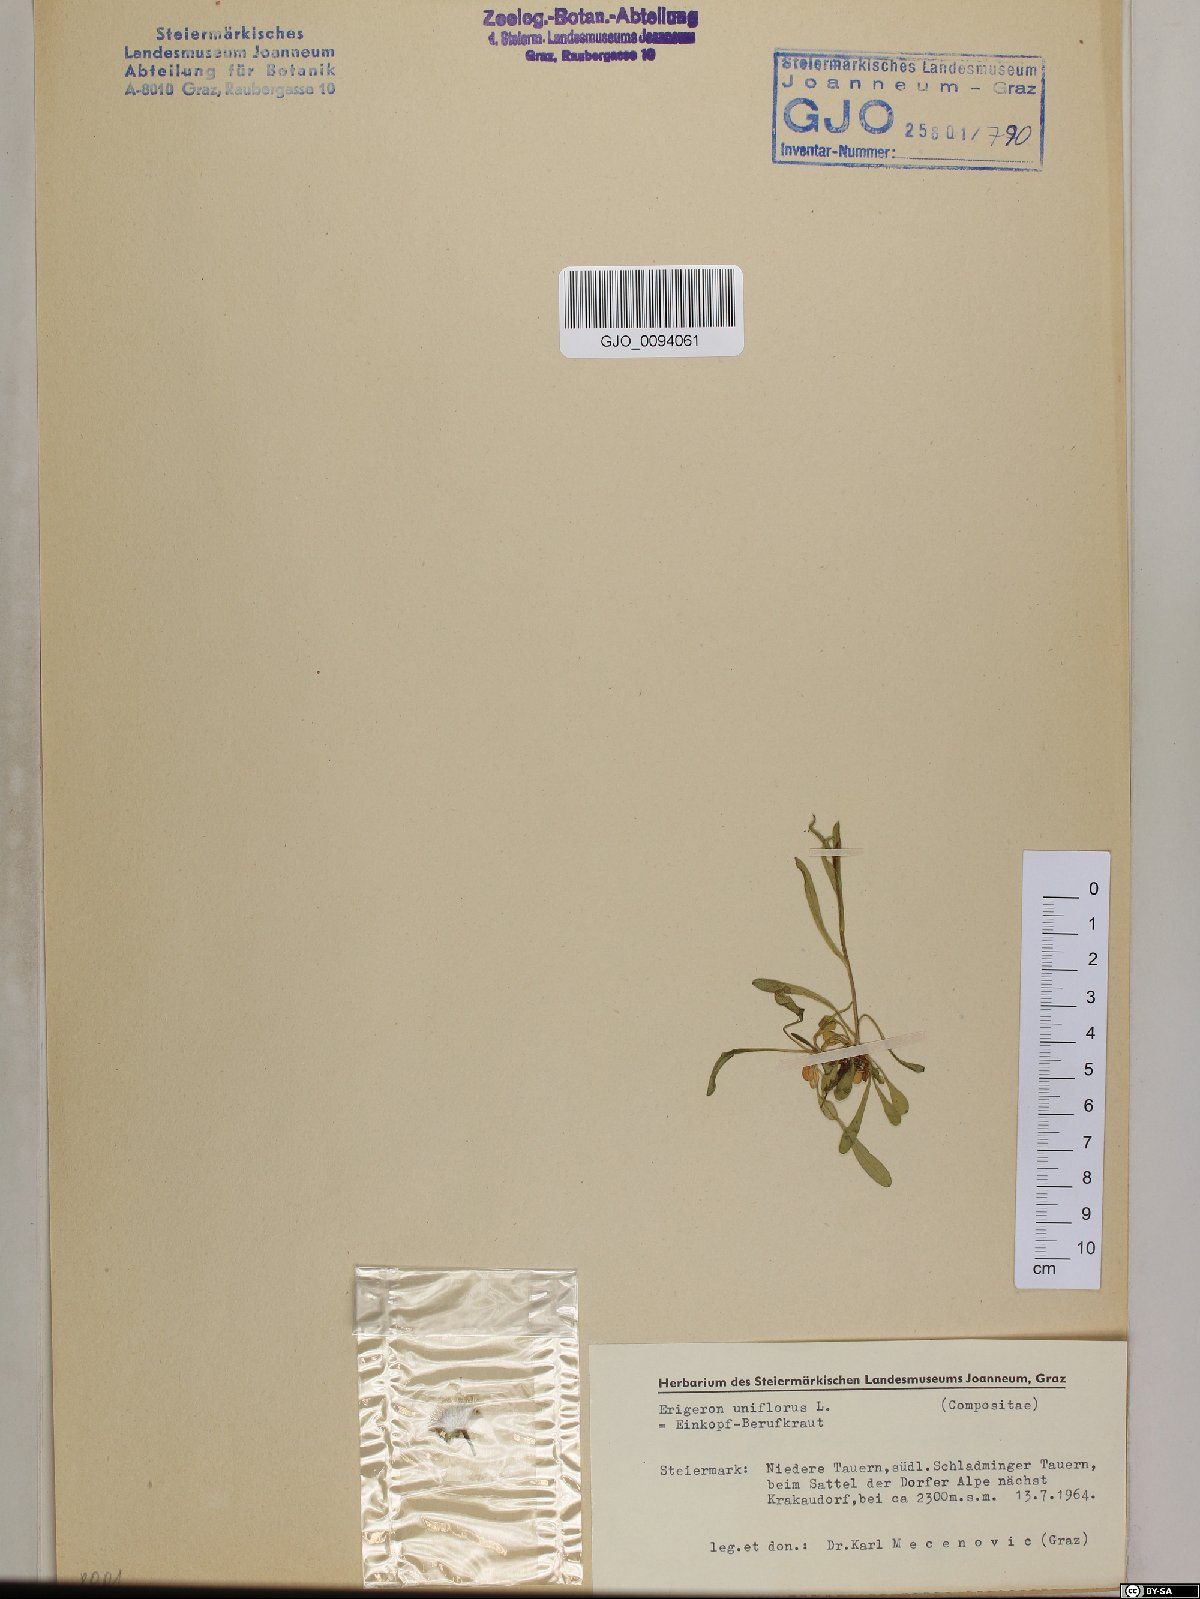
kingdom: Plantae
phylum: Tracheophyta
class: Magnoliopsida
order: Asterales
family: Asteraceae
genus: Erigeron
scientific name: Erigeron uniflorus
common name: Northern daisy
